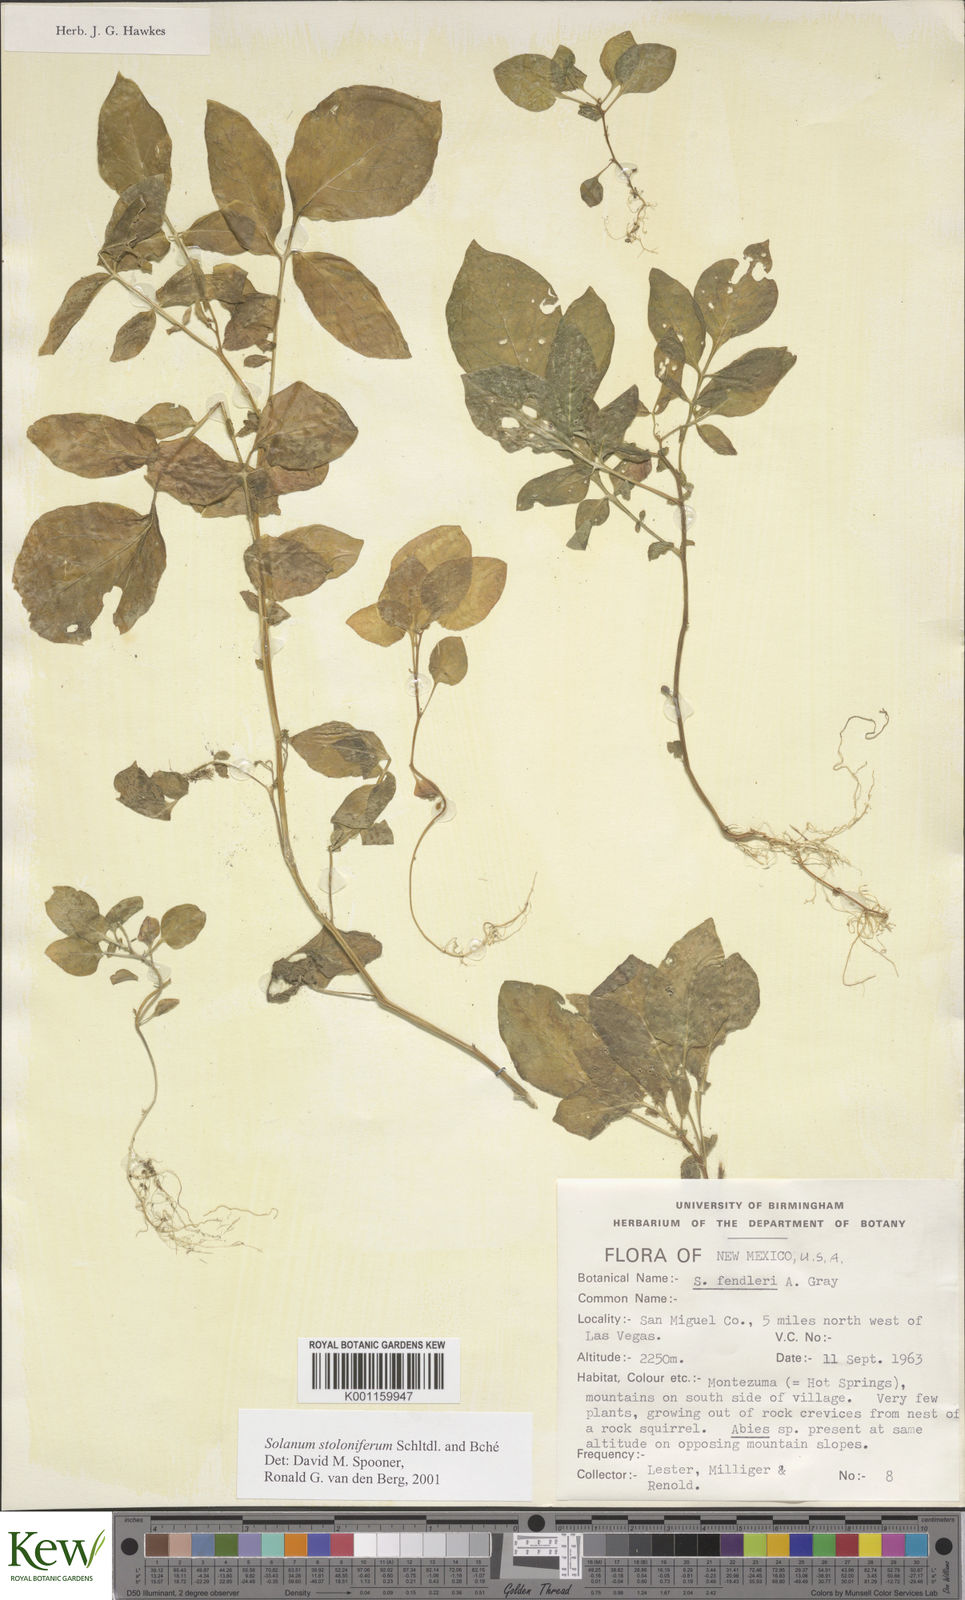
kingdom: Plantae
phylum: Tracheophyta
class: Magnoliopsida
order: Solanales
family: Solanaceae
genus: Solanum
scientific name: Solanum stoloniferum
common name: Fendler's nighshade
